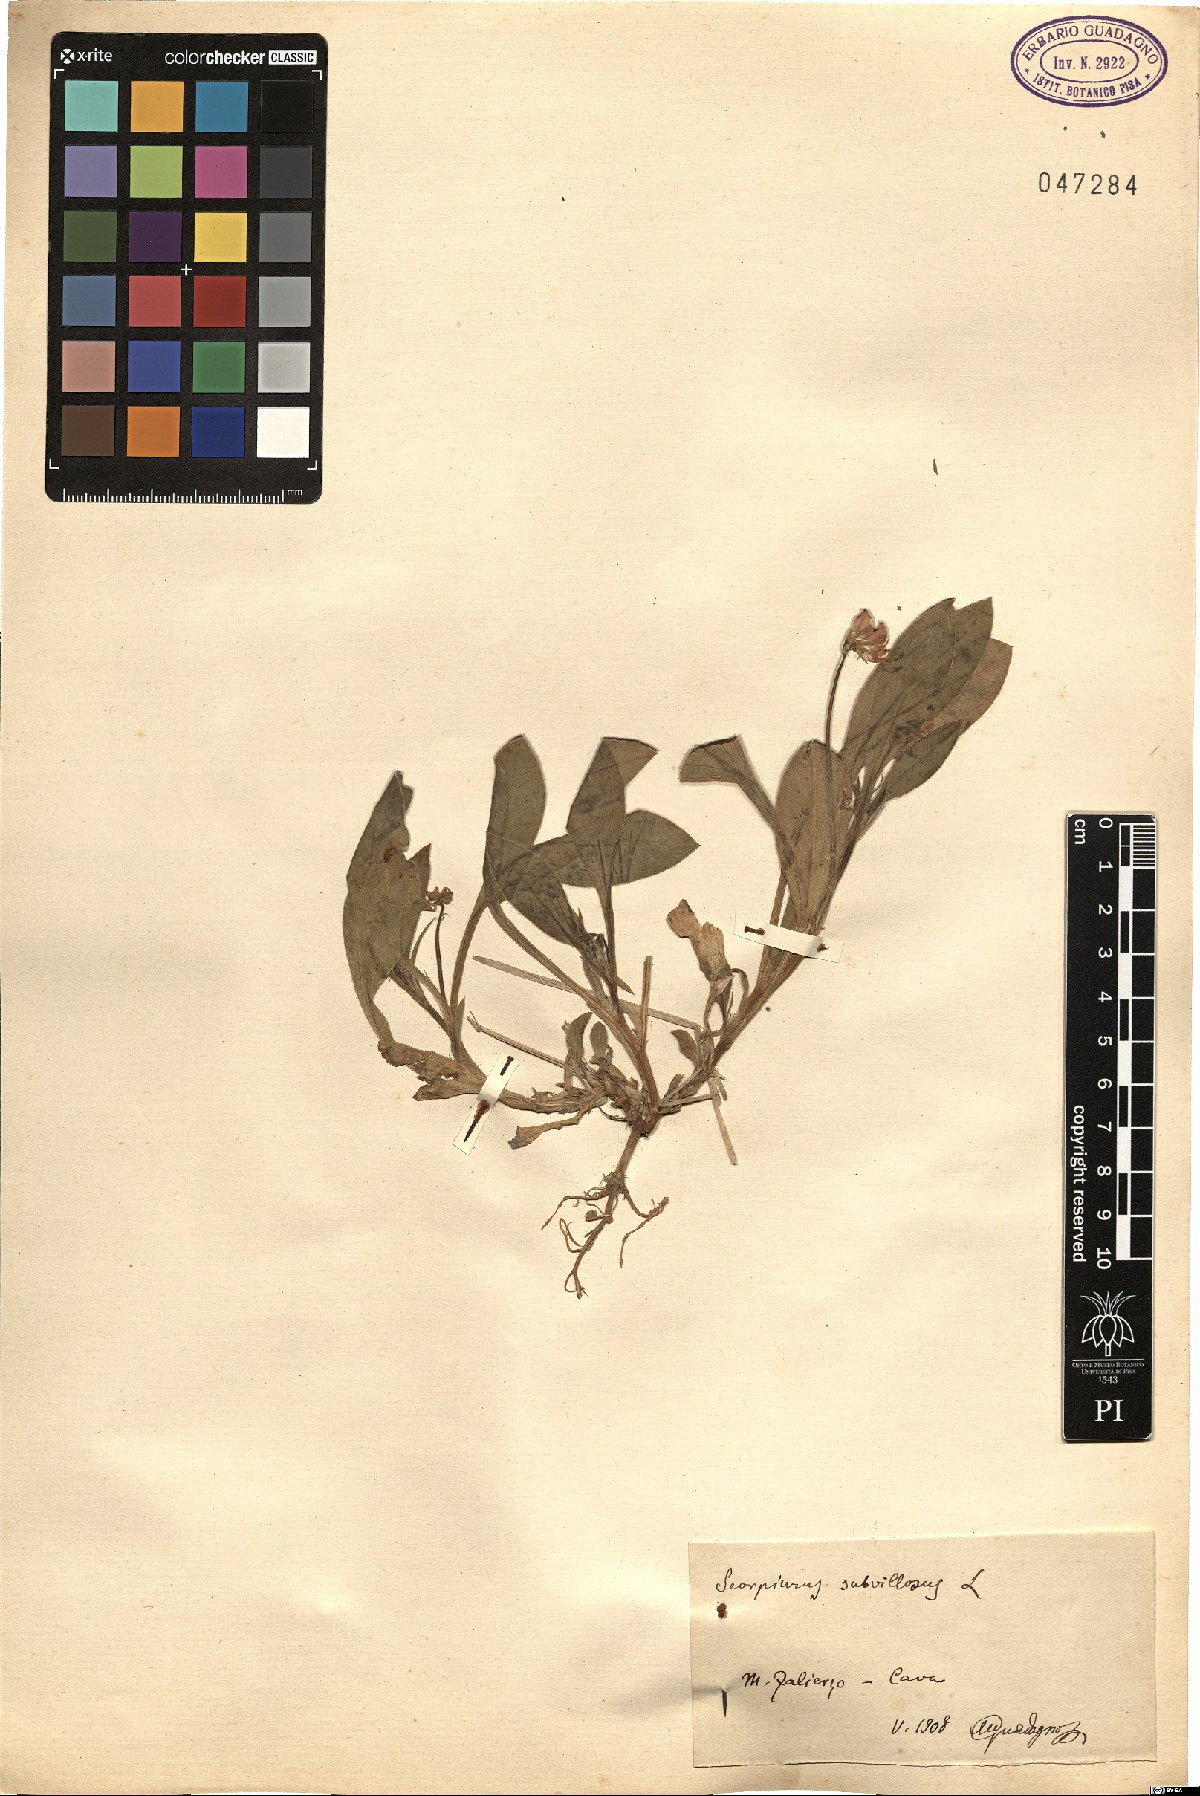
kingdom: Plantae
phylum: Tracheophyta
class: Magnoliopsida
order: Fabales
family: Fabaceae
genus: Scorpiurus
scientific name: Scorpiurus muricatus
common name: Caterpillar-plant
